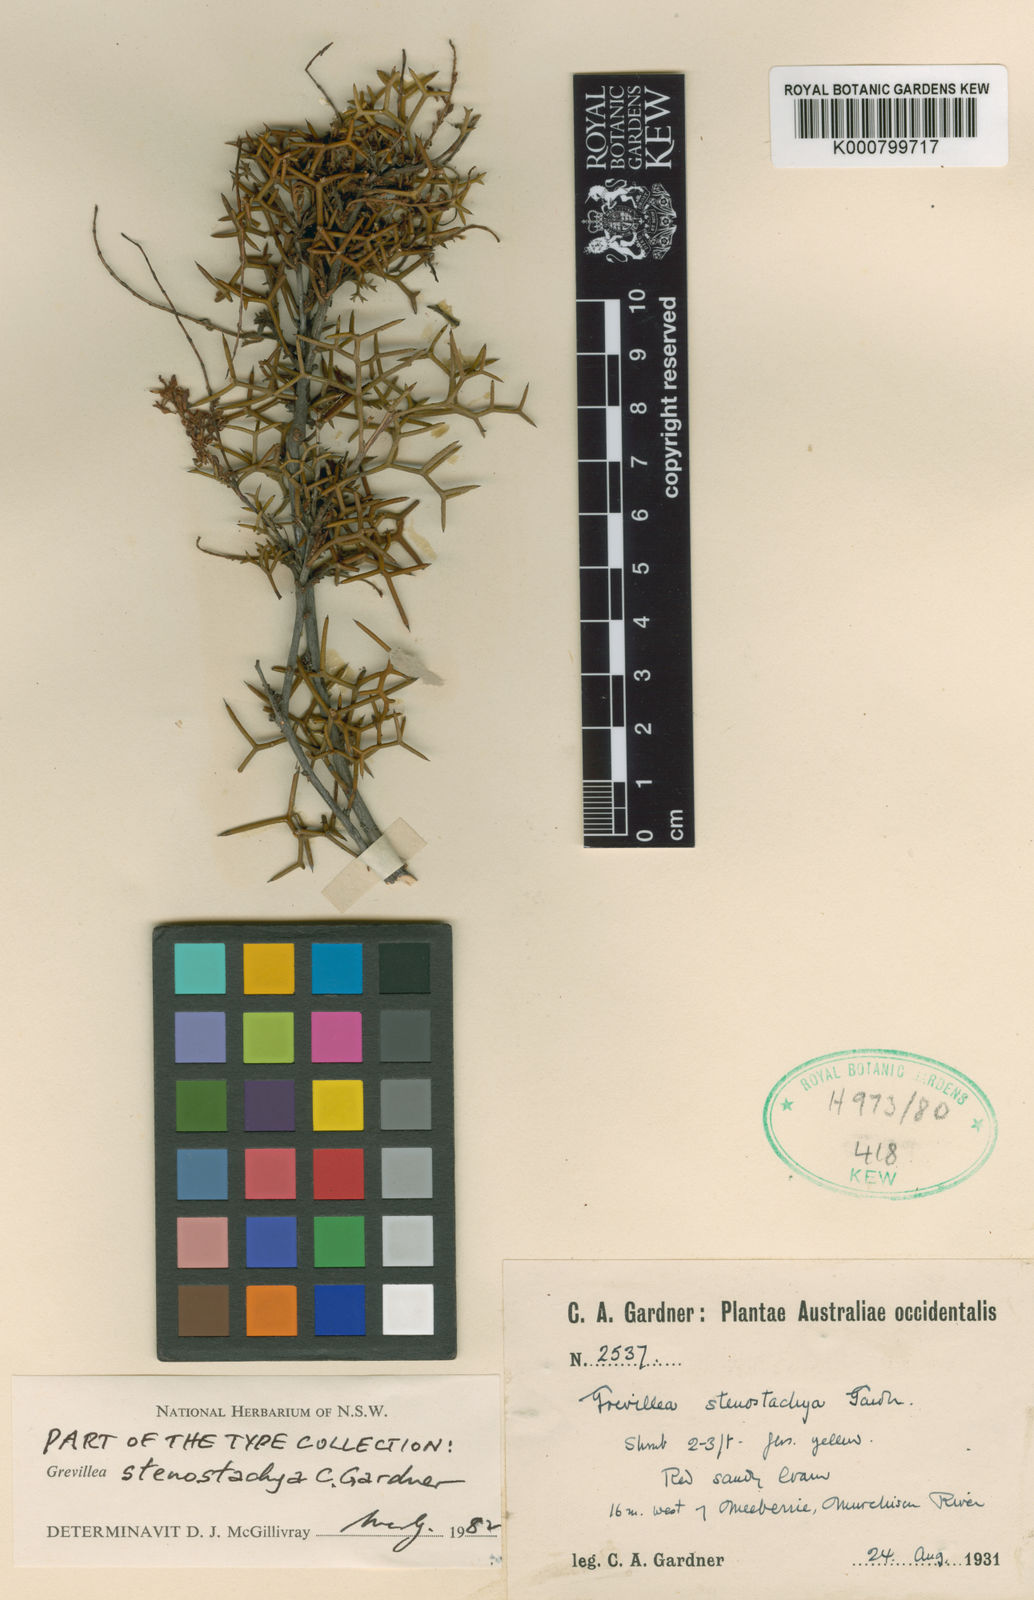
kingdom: Plantae
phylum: Tracheophyta
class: Magnoliopsida
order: Proteales
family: Proteaceae
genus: Grevillea
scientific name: Grevillea stenostachya
